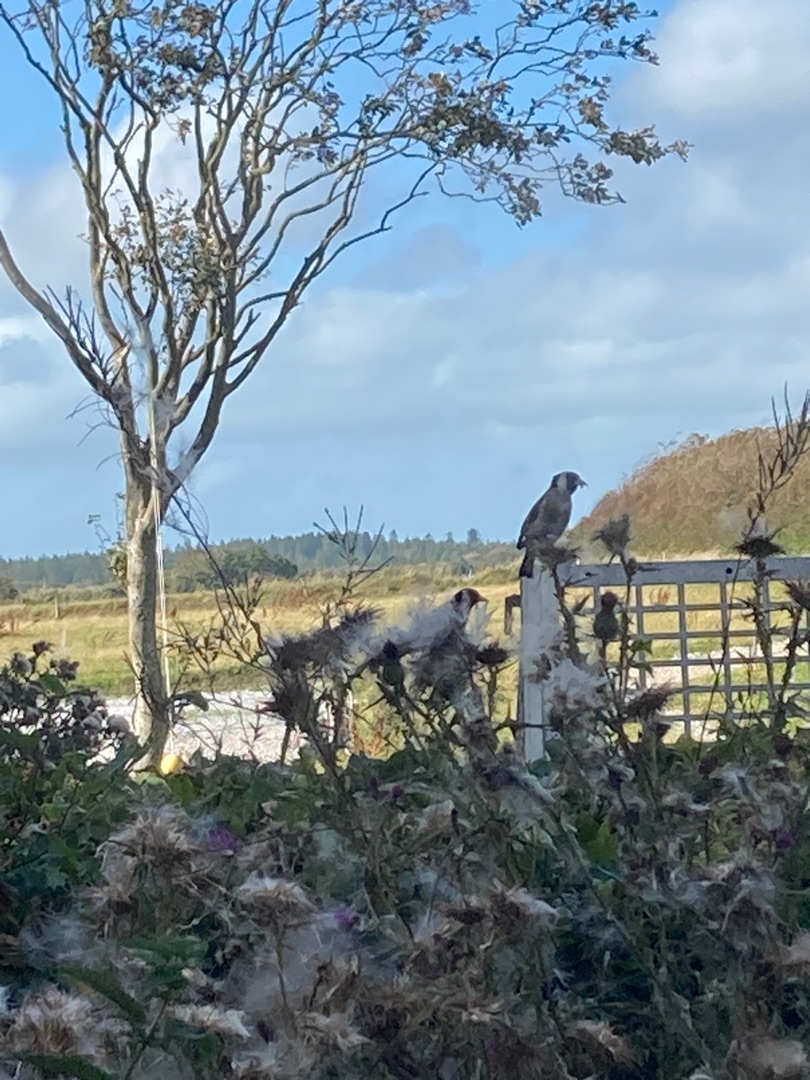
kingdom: Animalia
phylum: Chordata
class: Aves
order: Passeriformes
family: Fringillidae
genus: Carduelis
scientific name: Carduelis carduelis
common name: Stillits
